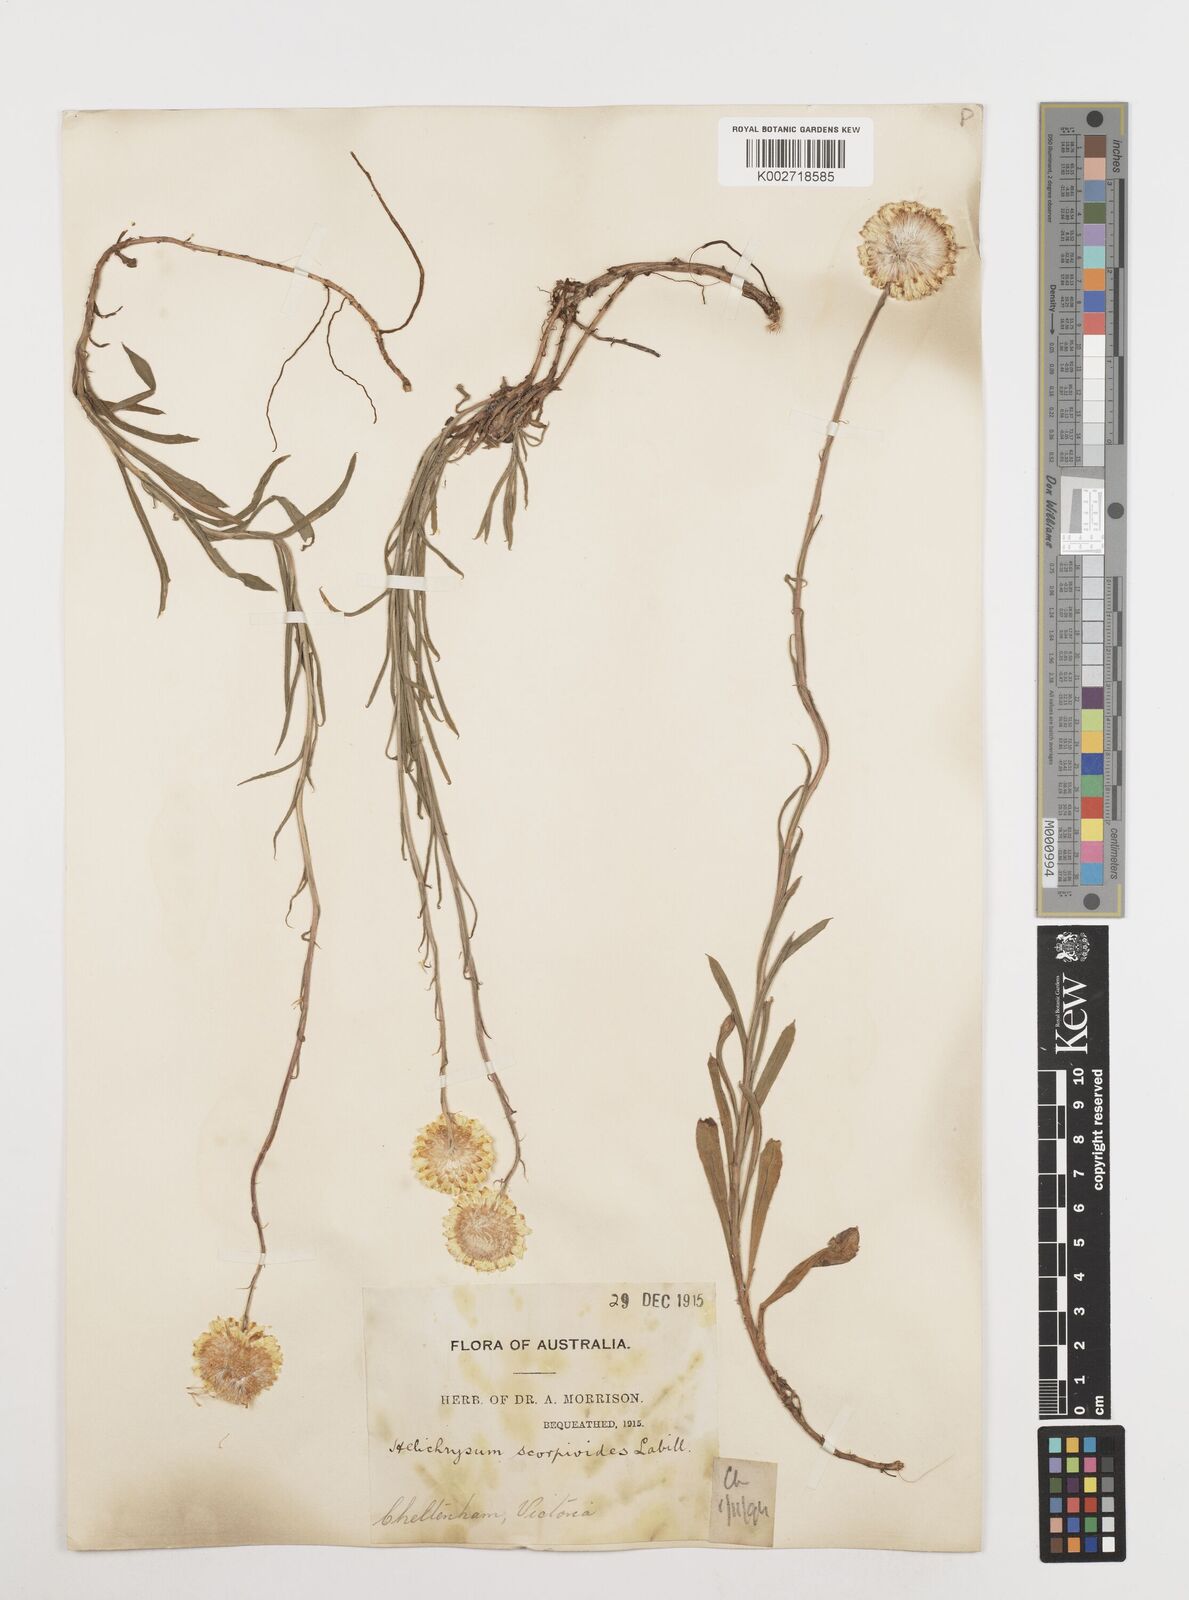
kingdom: Plantae
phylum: Tracheophyta
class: Magnoliopsida
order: Asterales
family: Asteraceae
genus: Coronidium
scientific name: Coronidium scorpioides
